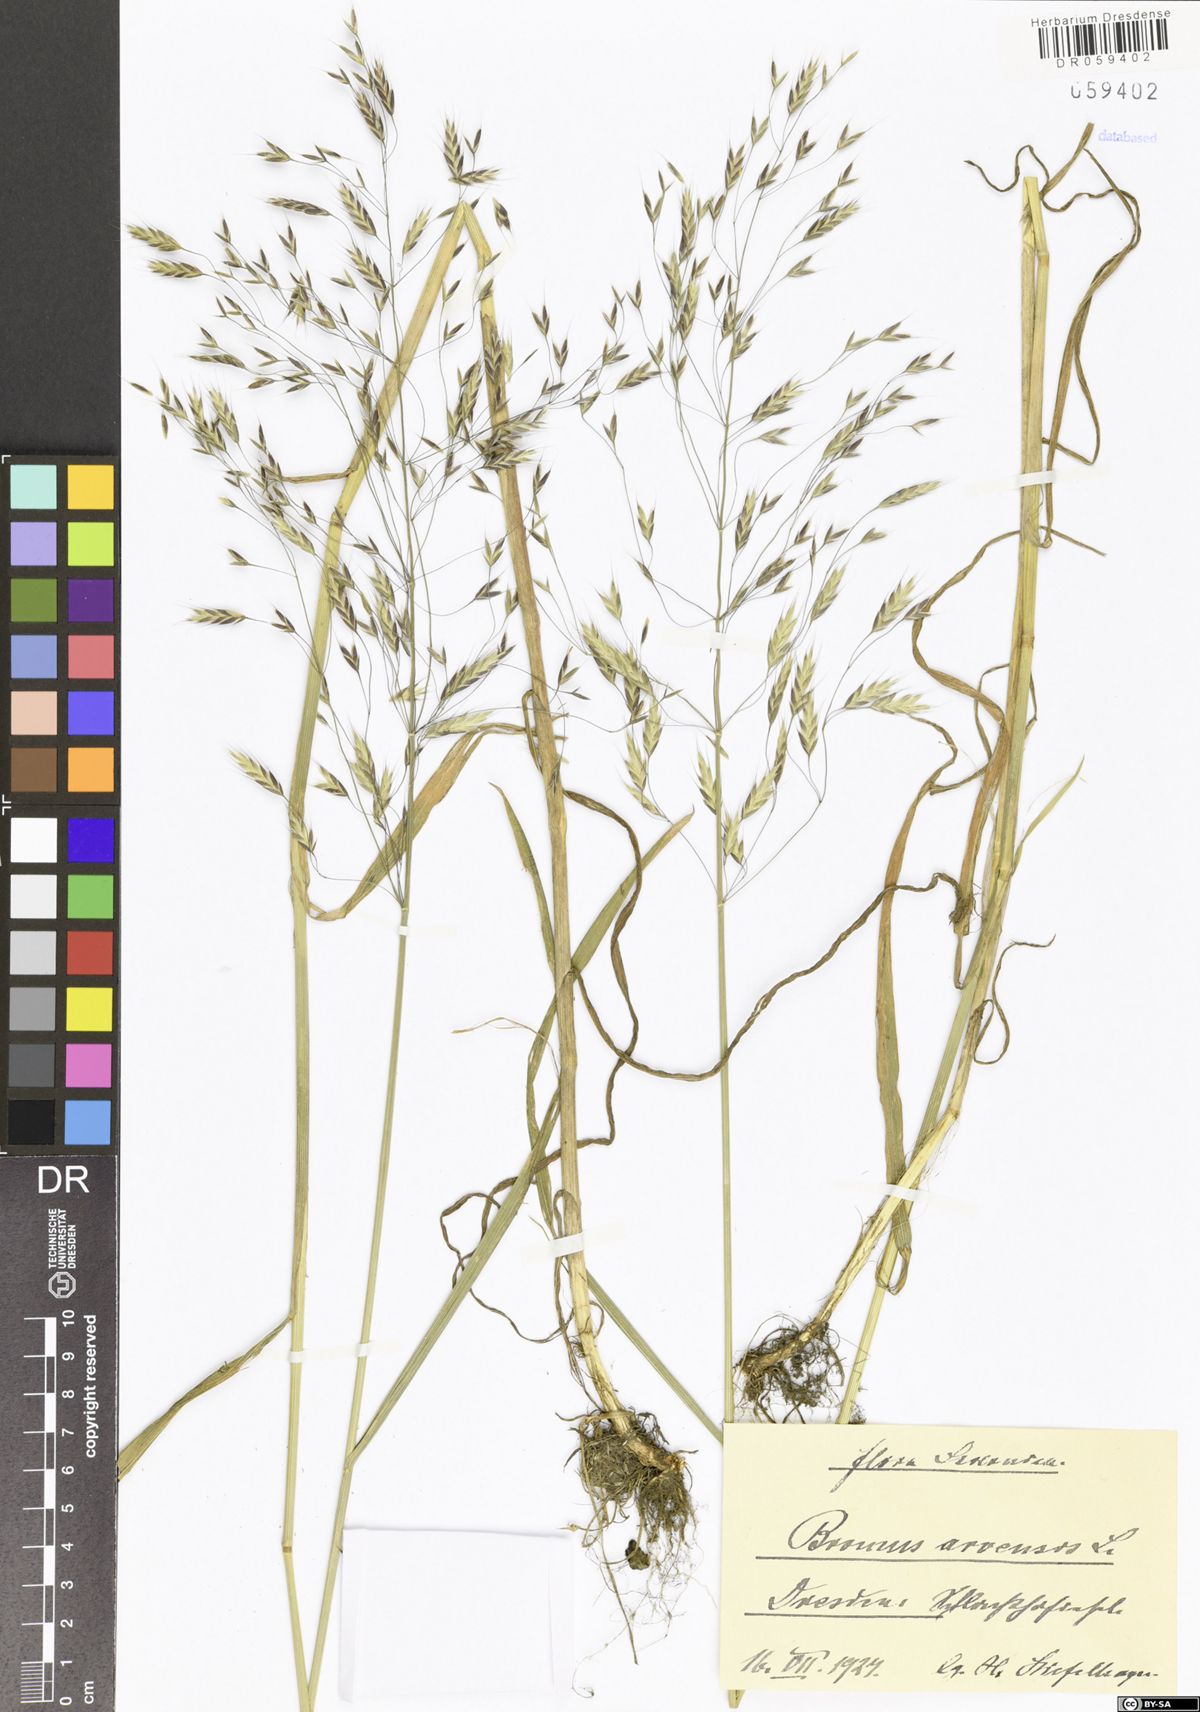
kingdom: Plantae
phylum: Tracheophyta
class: Liliopsida
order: Poales
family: Poaceae
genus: Bromus
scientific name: Bromus arvensis
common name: Field brome
